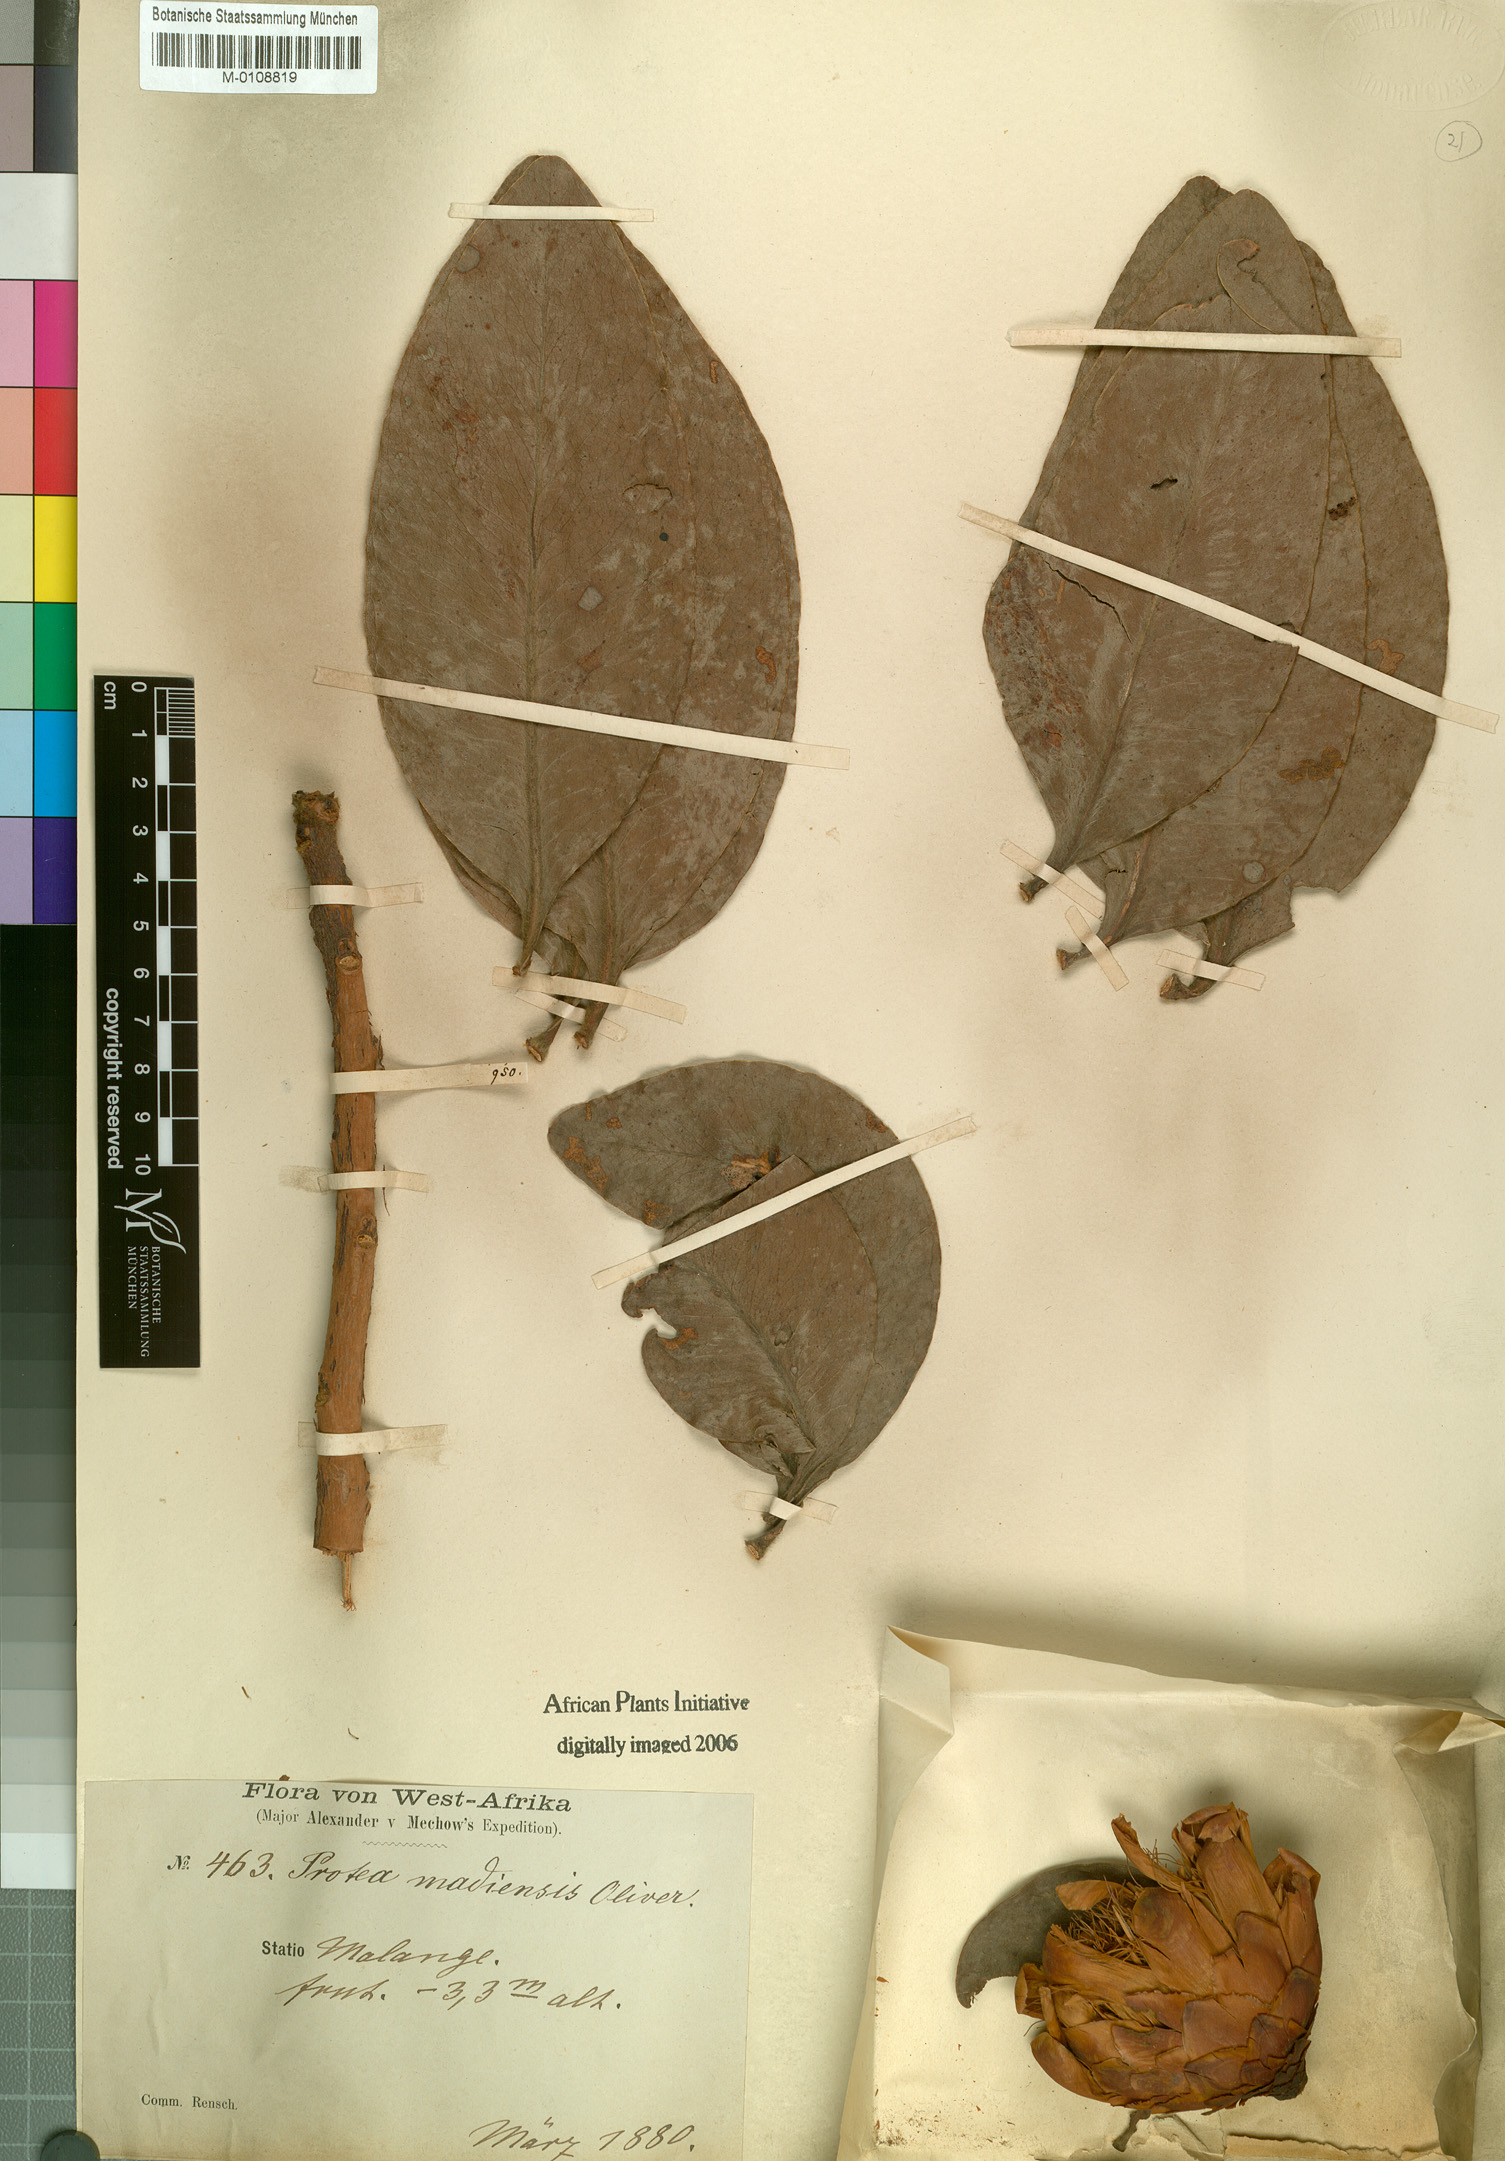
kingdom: Plantae
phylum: Tracheophyta
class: Magnoliopsida
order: Proteales
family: Proteaceae
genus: Protea
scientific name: Protea madiensis
